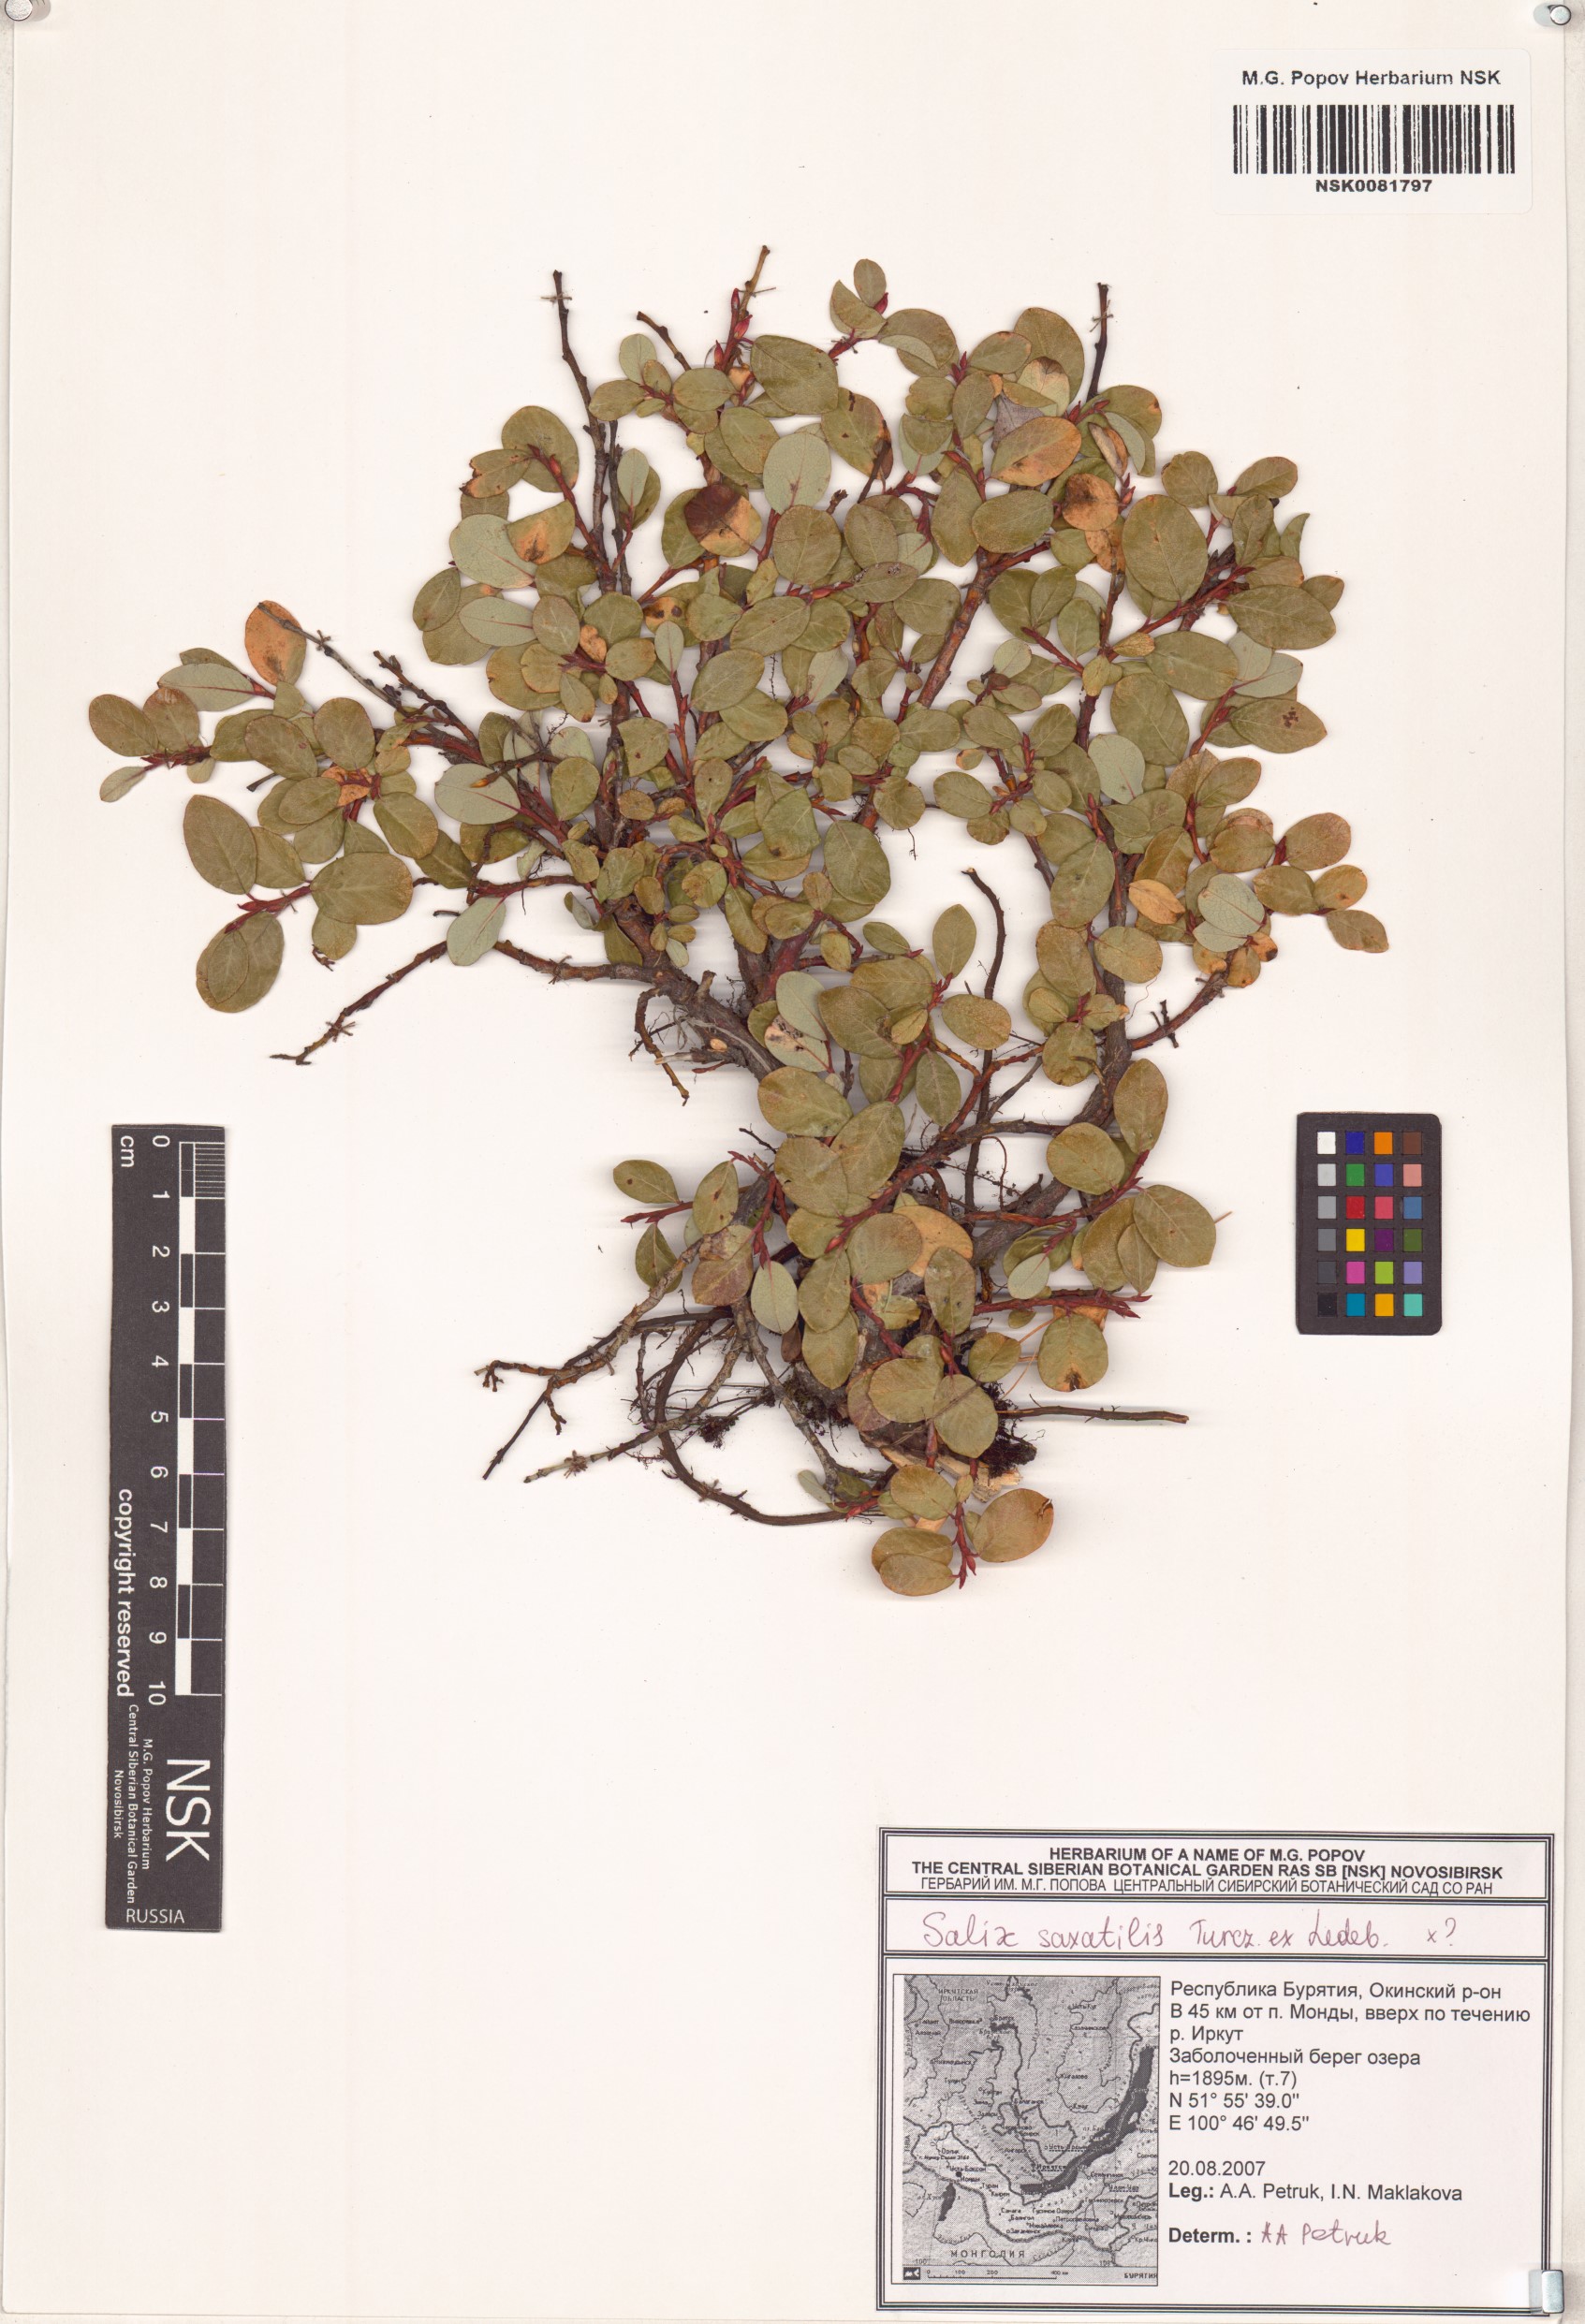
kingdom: Plantae
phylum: Tracheophyta
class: Magnoliopsida
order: Malpighiales
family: Salicaceae
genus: Salix
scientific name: Salix saxatilis
